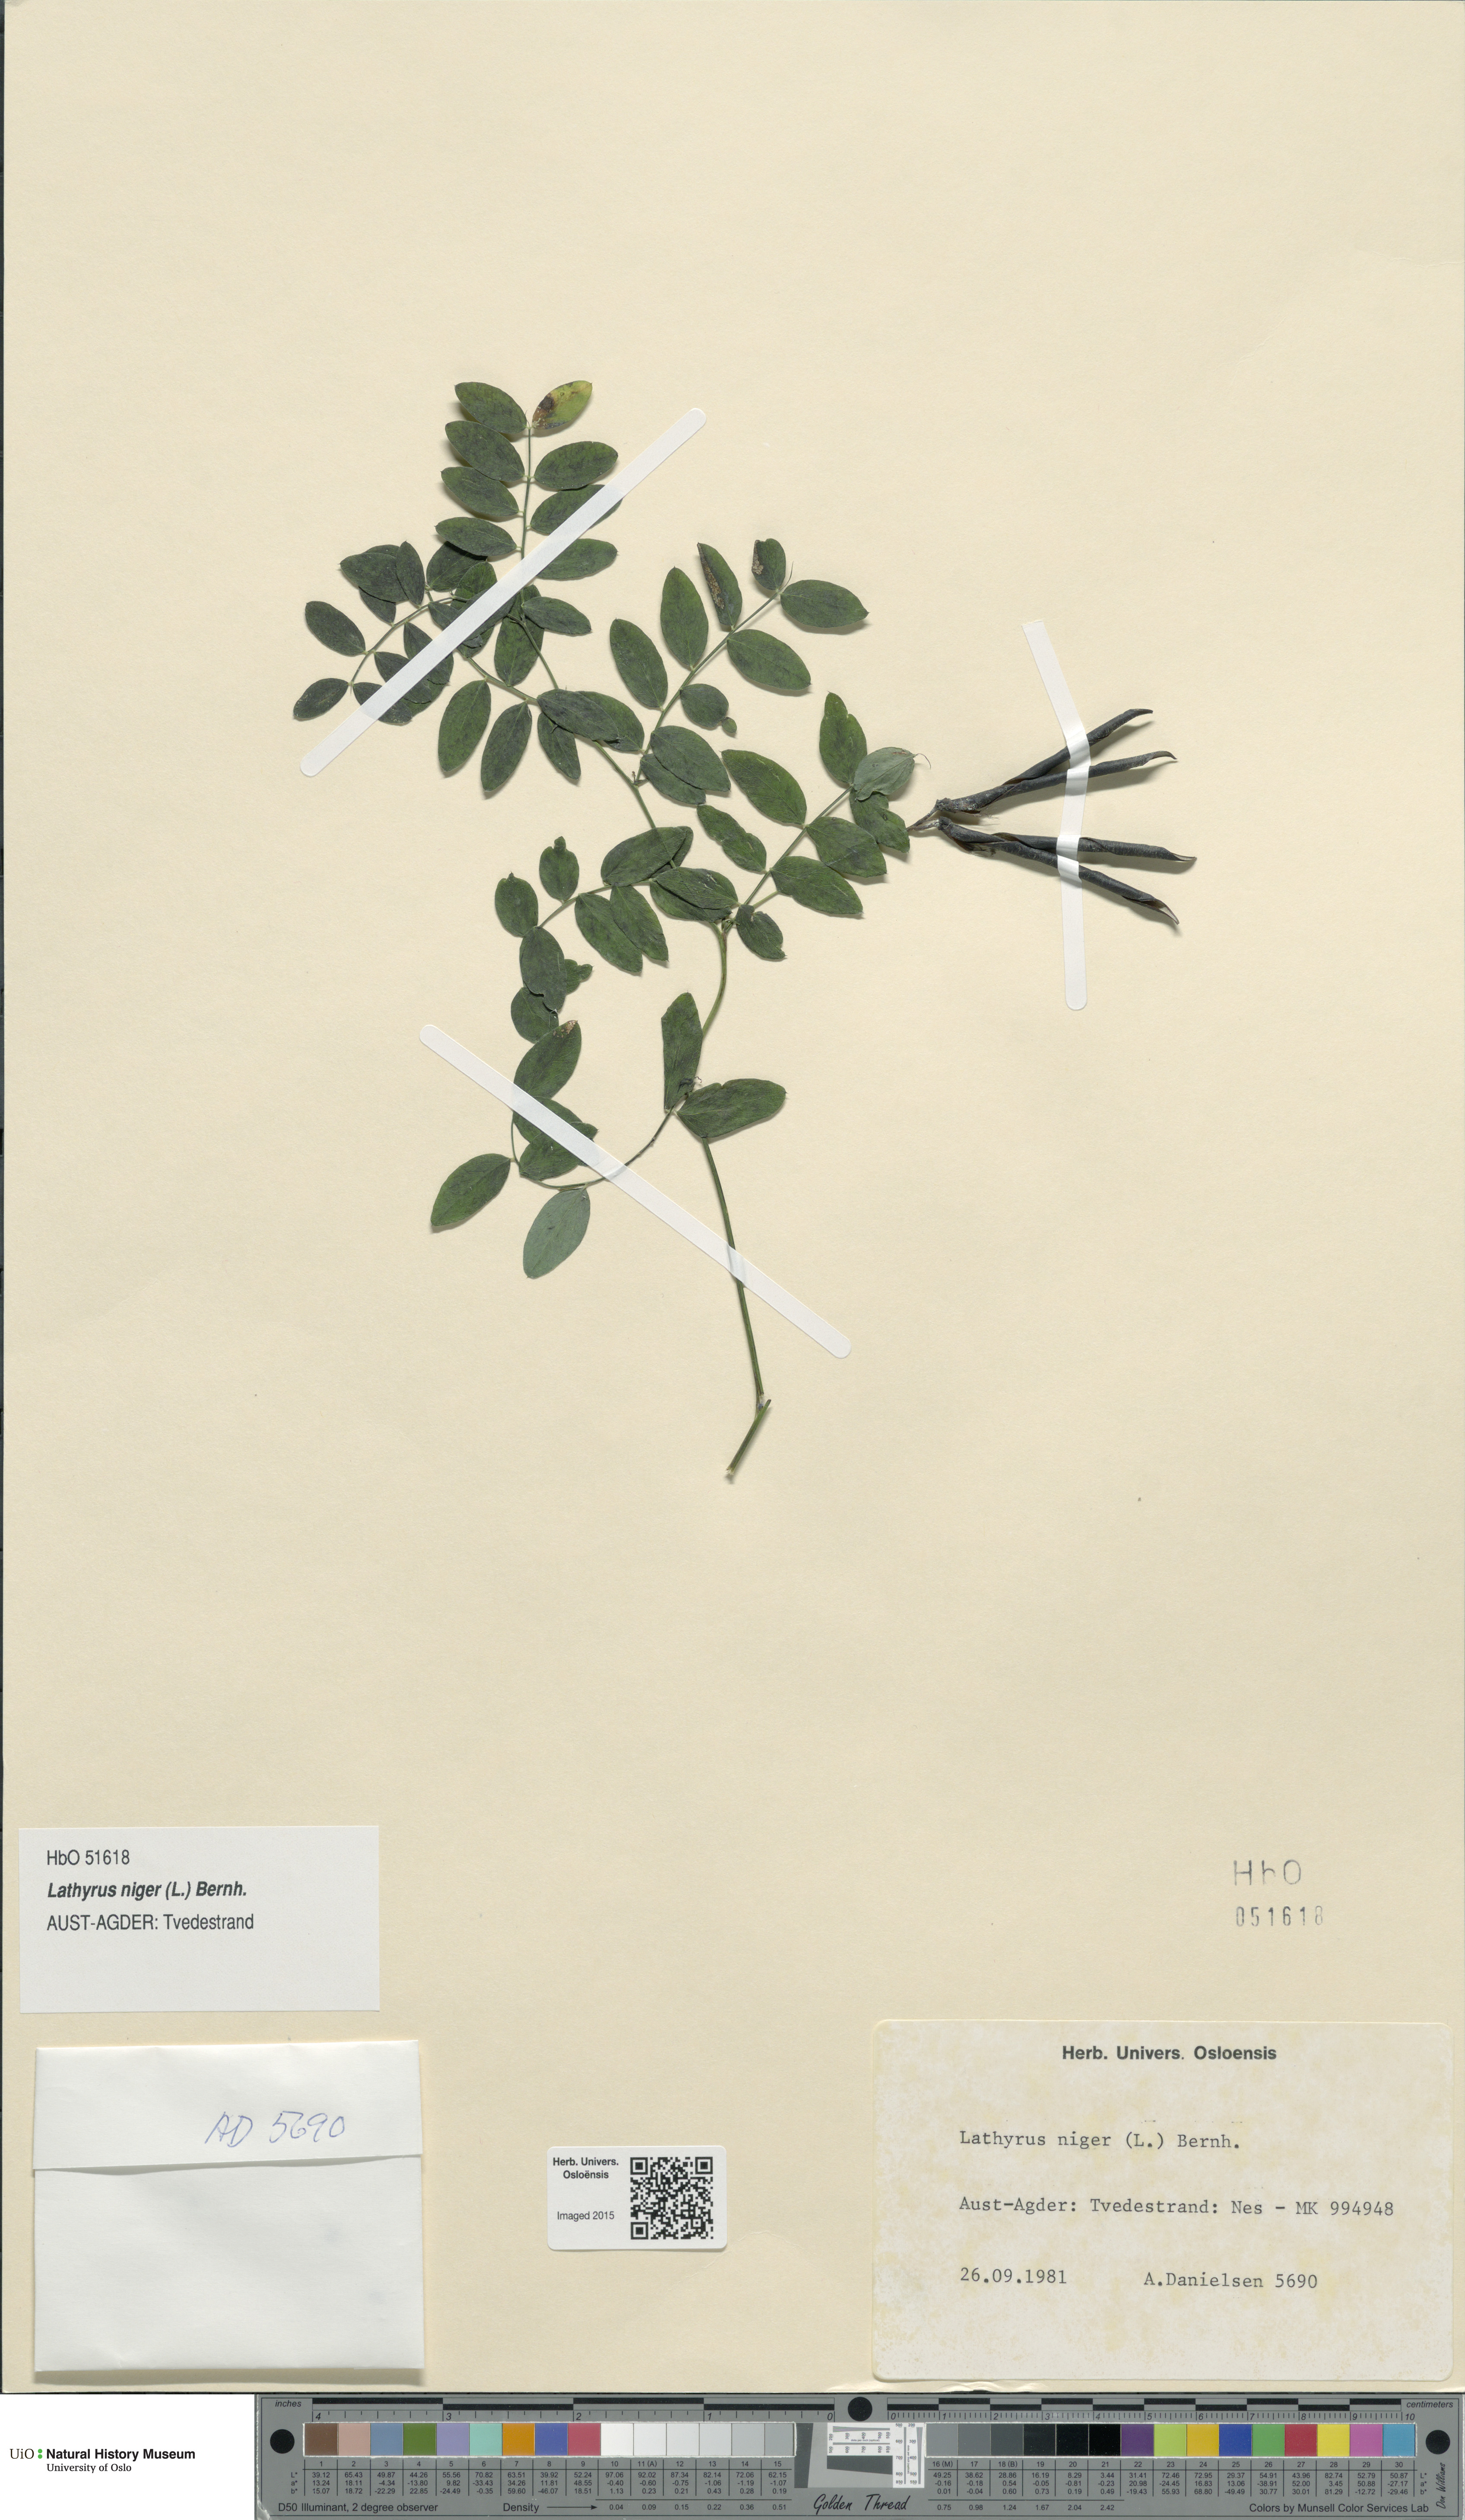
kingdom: Plantae
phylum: Tracheophyta
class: Magnoliopsida
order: Fabales
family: Fabaceae
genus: Lathyrus
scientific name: Lathyrus niger
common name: Black pea
